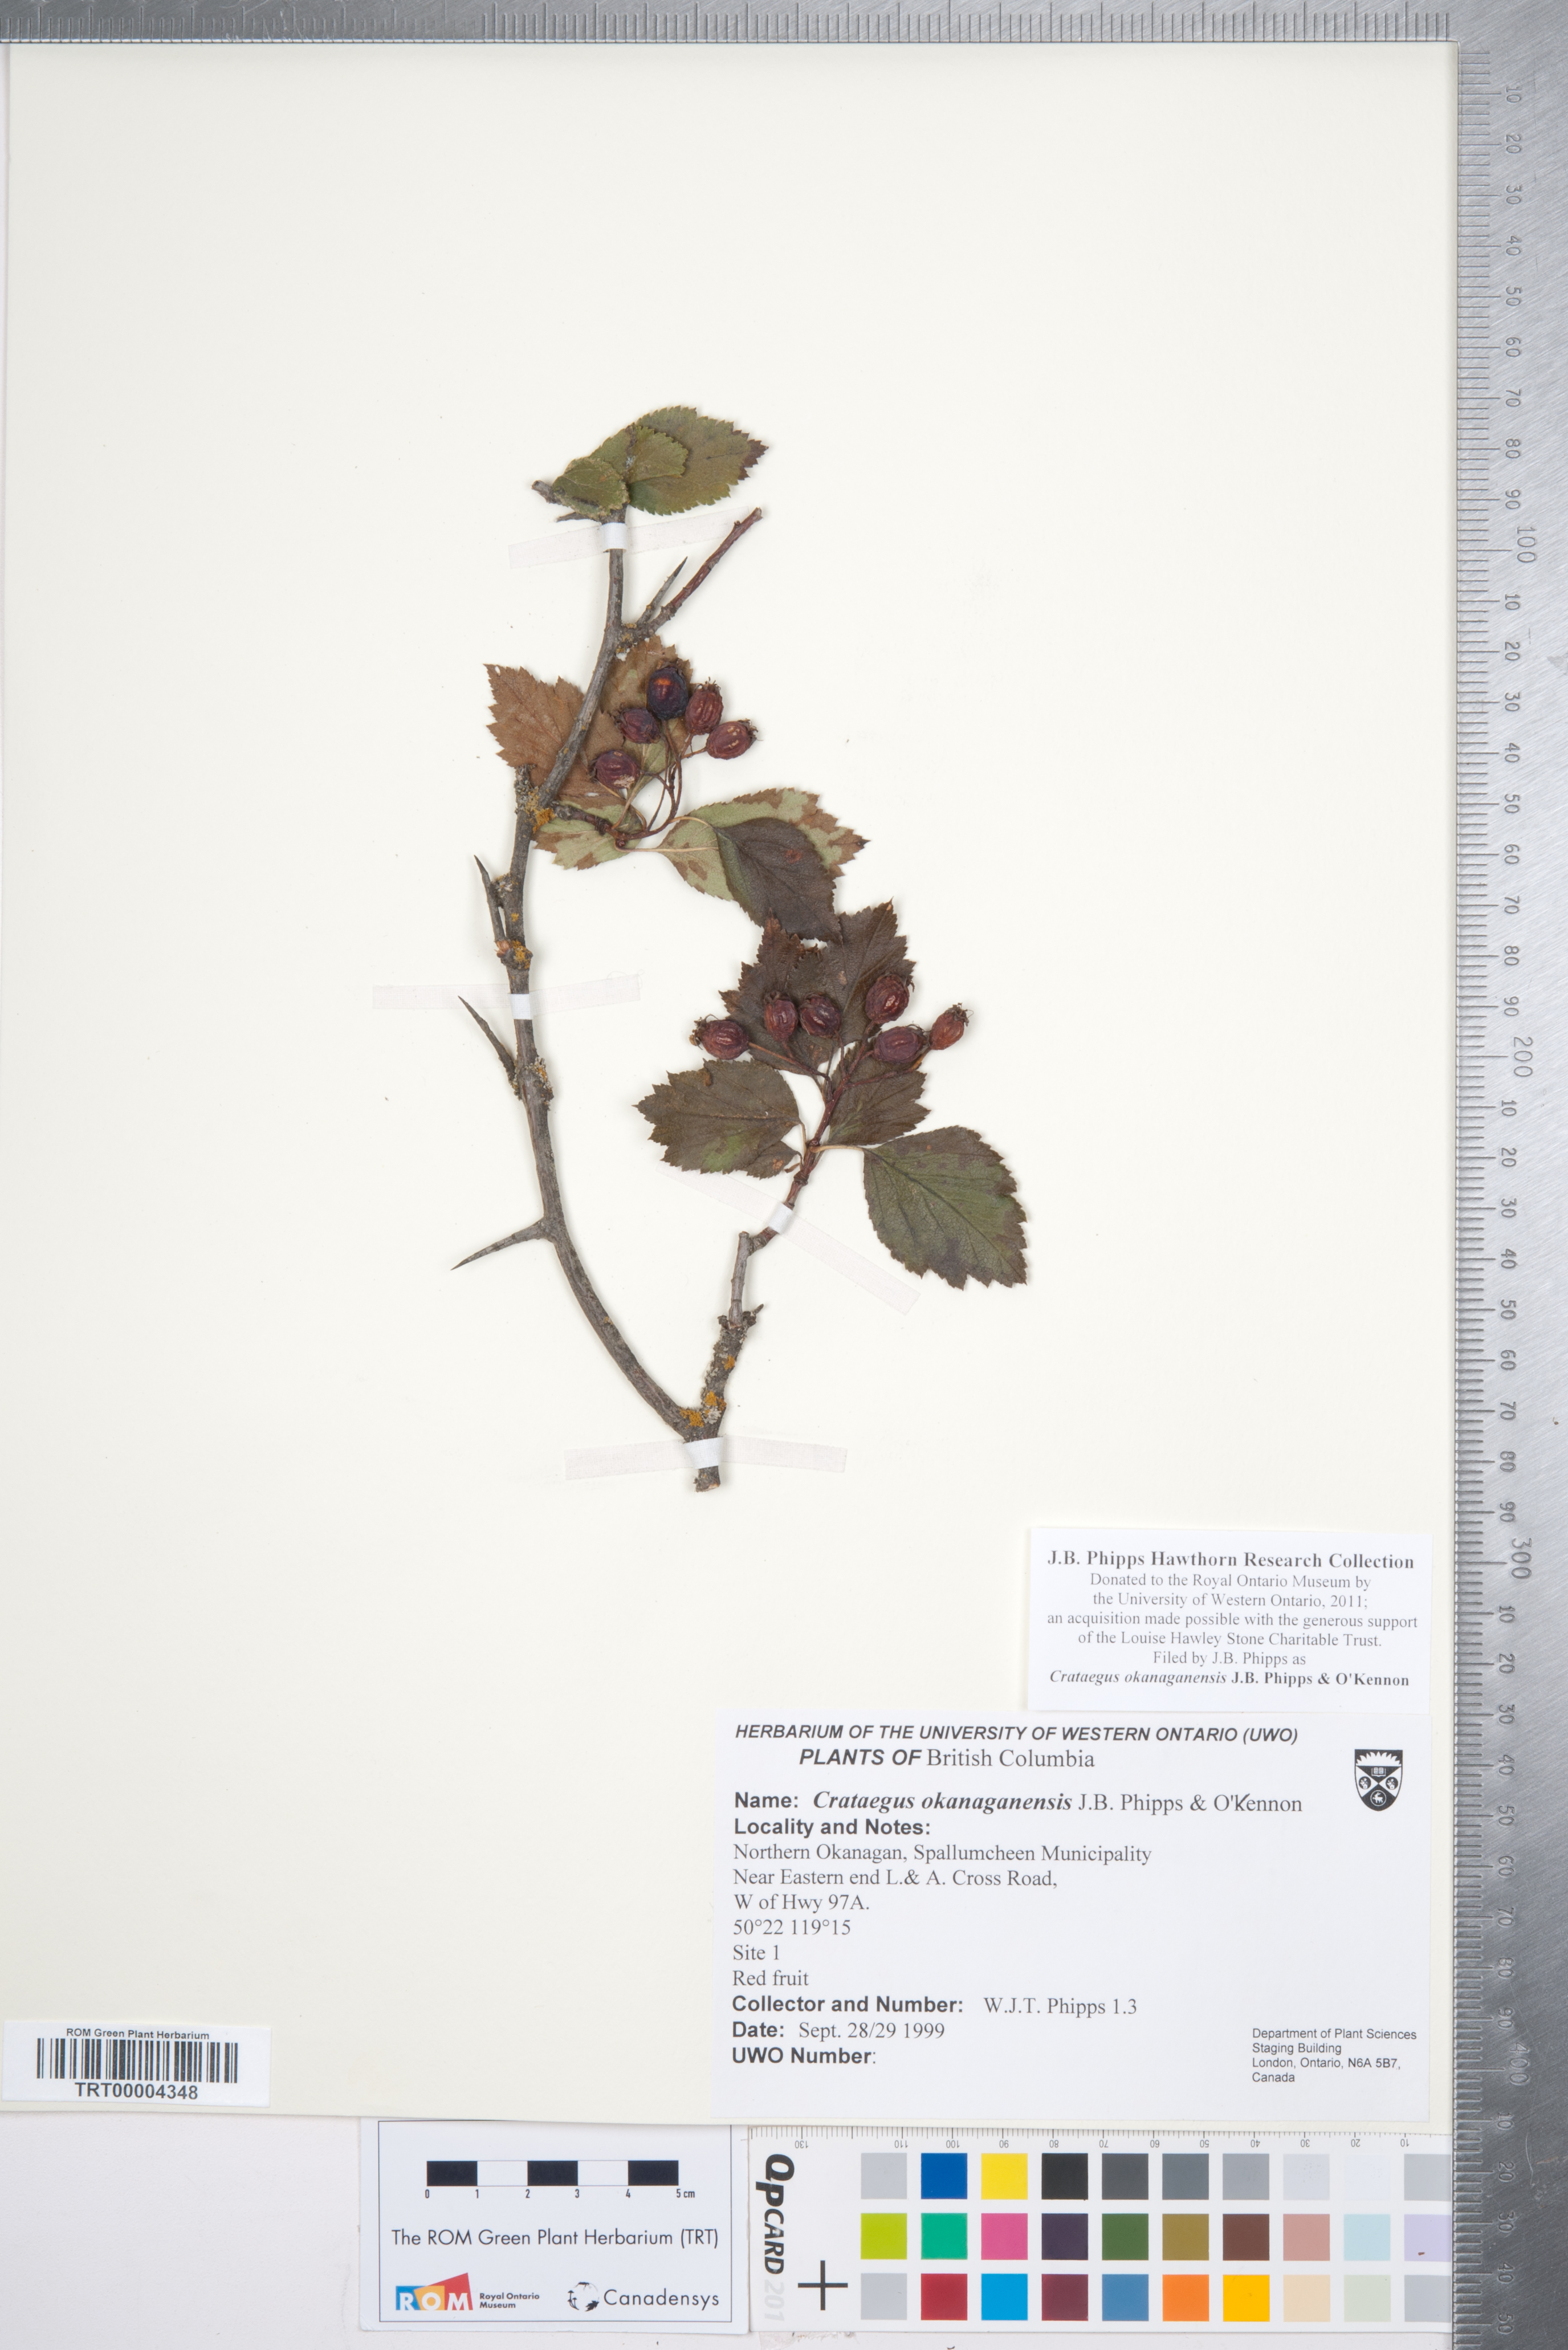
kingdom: Plantae
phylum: Tracheophyta
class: Magnoliopsida
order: Rosales
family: Rosaceae
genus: Crataegus
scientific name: Crataegus okanaganensis
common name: Okanagan valley hawthorn
